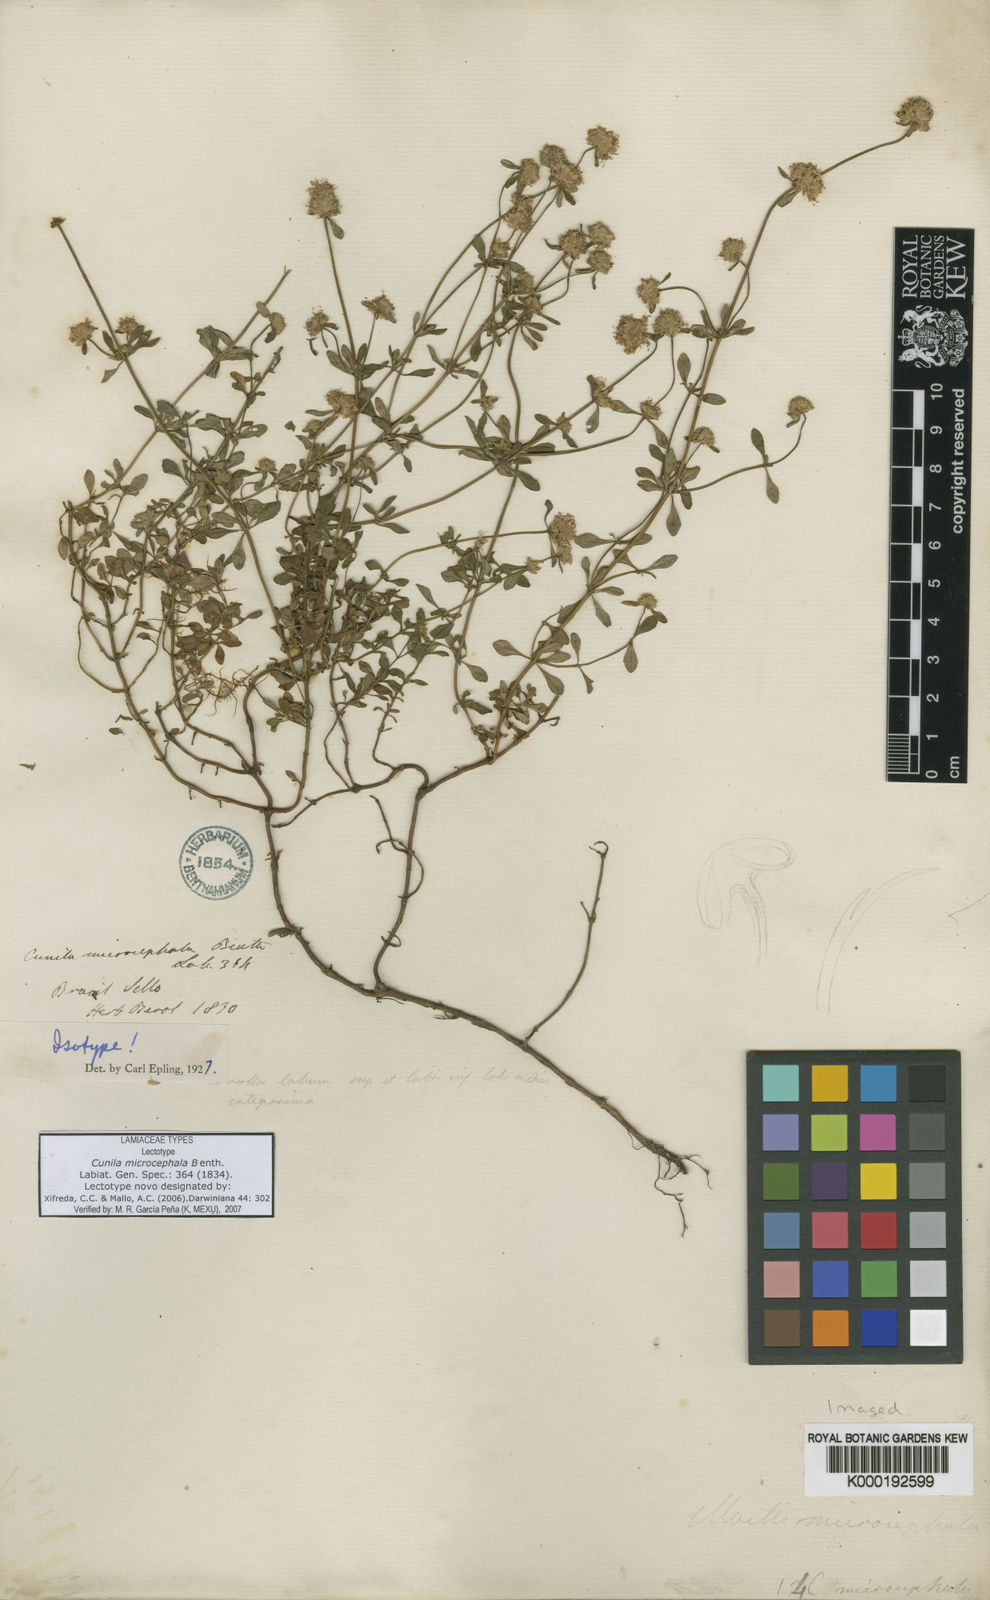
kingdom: Plantae
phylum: Tracheophyta
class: Magnoliopsida
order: Lamiales
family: Lamiaceae
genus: Cunila
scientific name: Cunila microcephala
